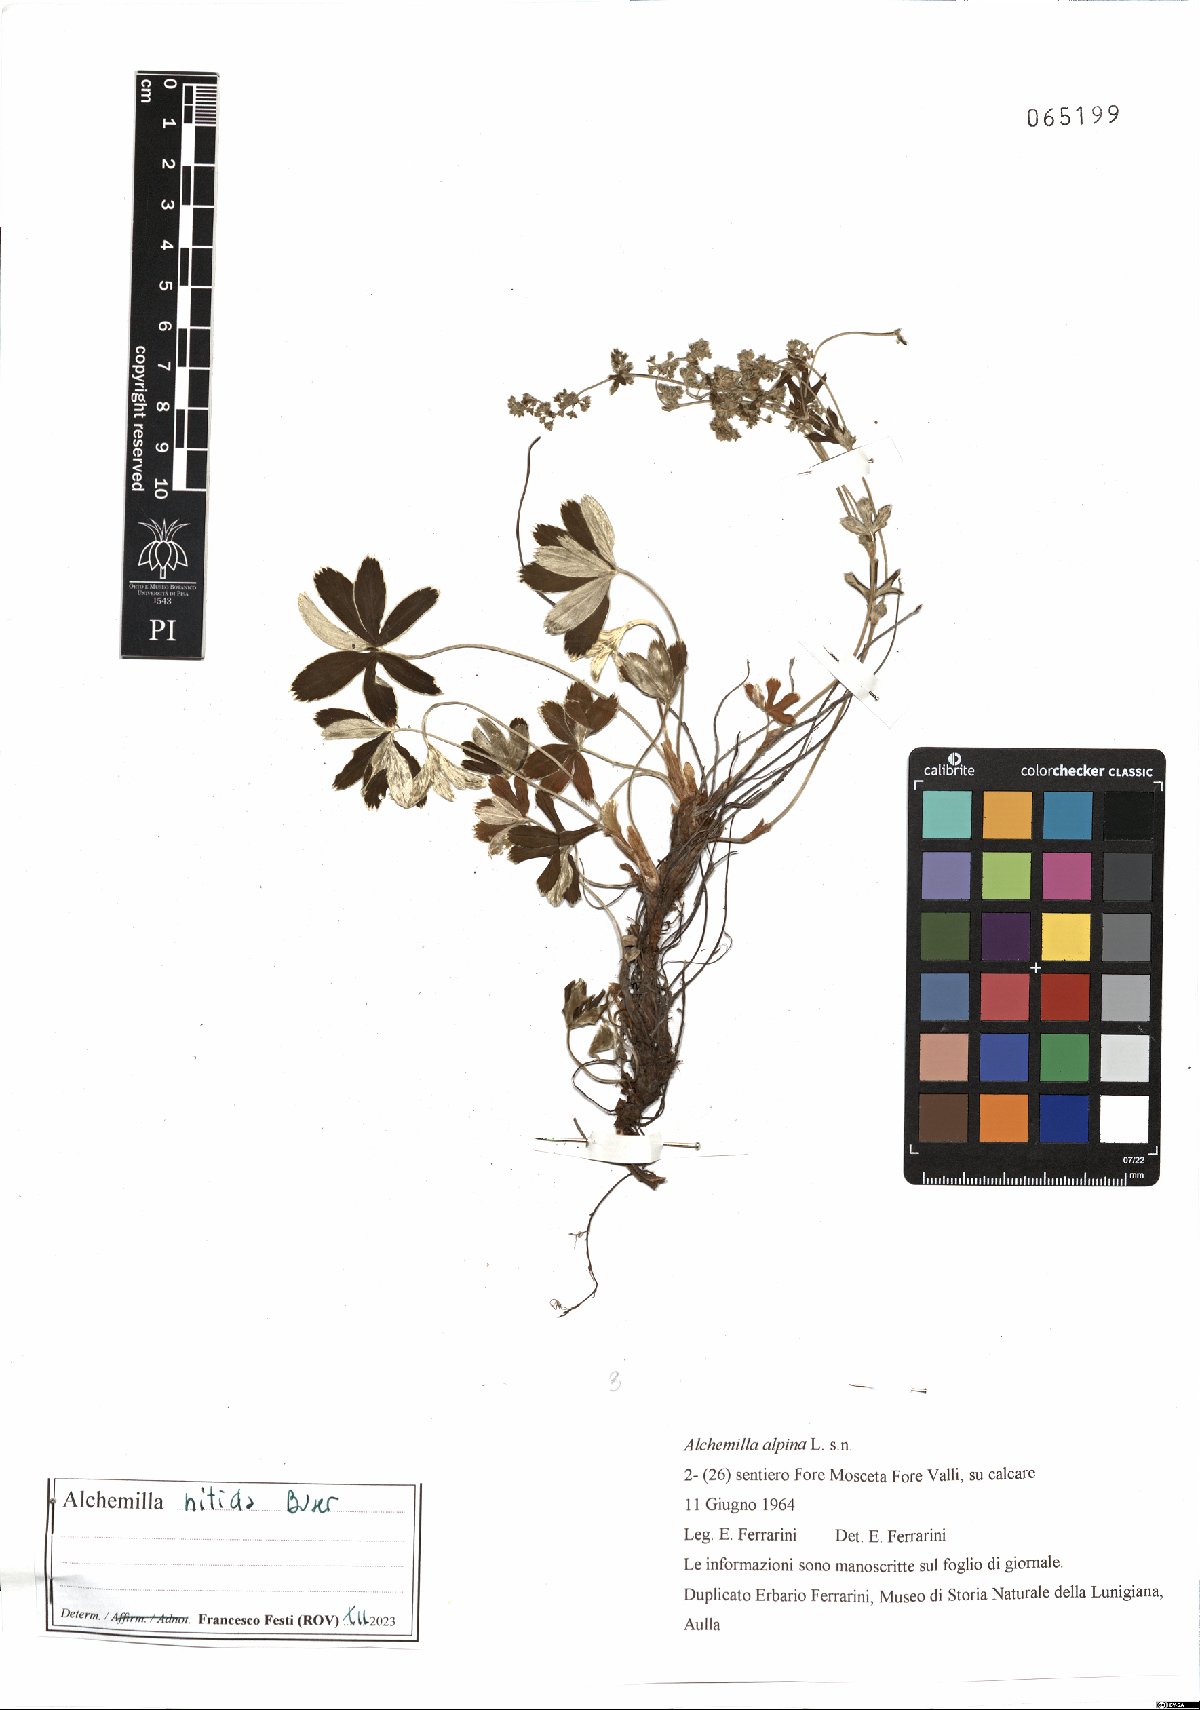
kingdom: Plantae
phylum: Tracheophyta
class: Magnoliopsida
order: Rosales
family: Rosaceae
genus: Alchemilla
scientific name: Alchemilla nitida
